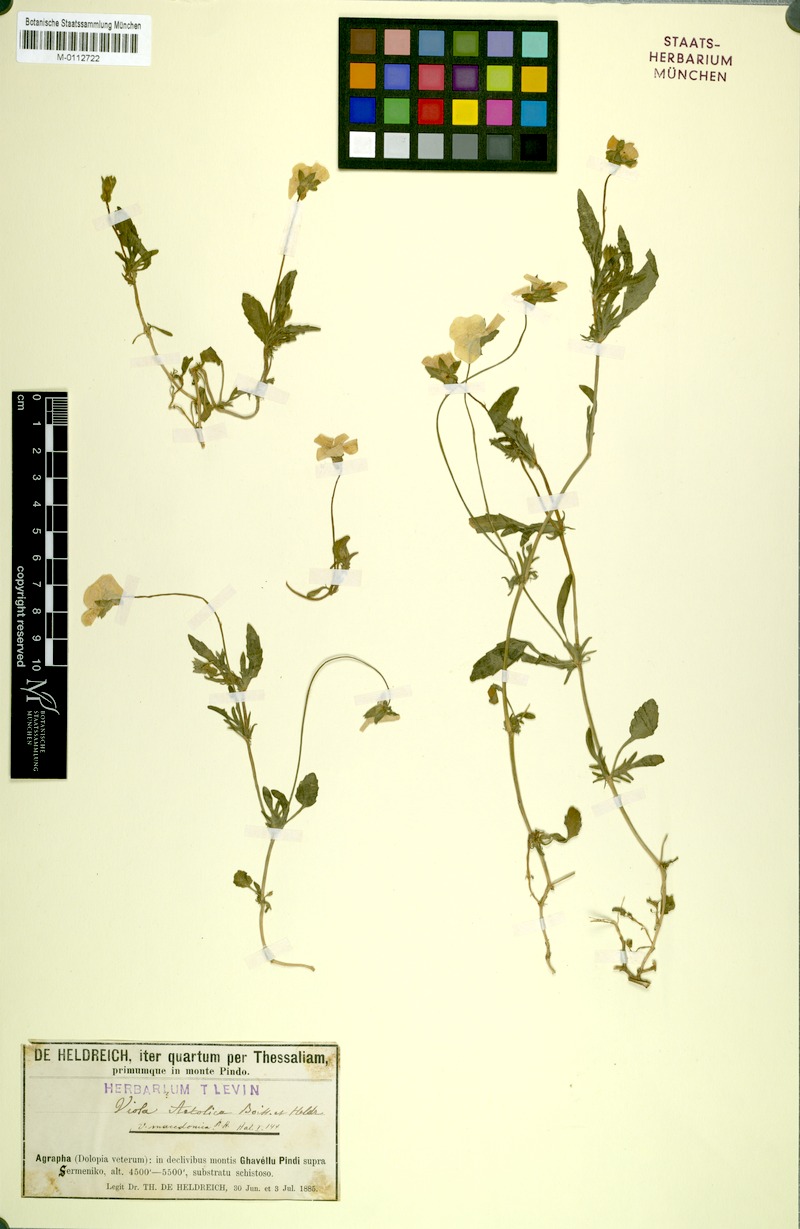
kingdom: Plantae
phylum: Tracheophyta
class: Magnoliopsida
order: Malpighiales
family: Violaceae
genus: Viola
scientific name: Viola aetolica
